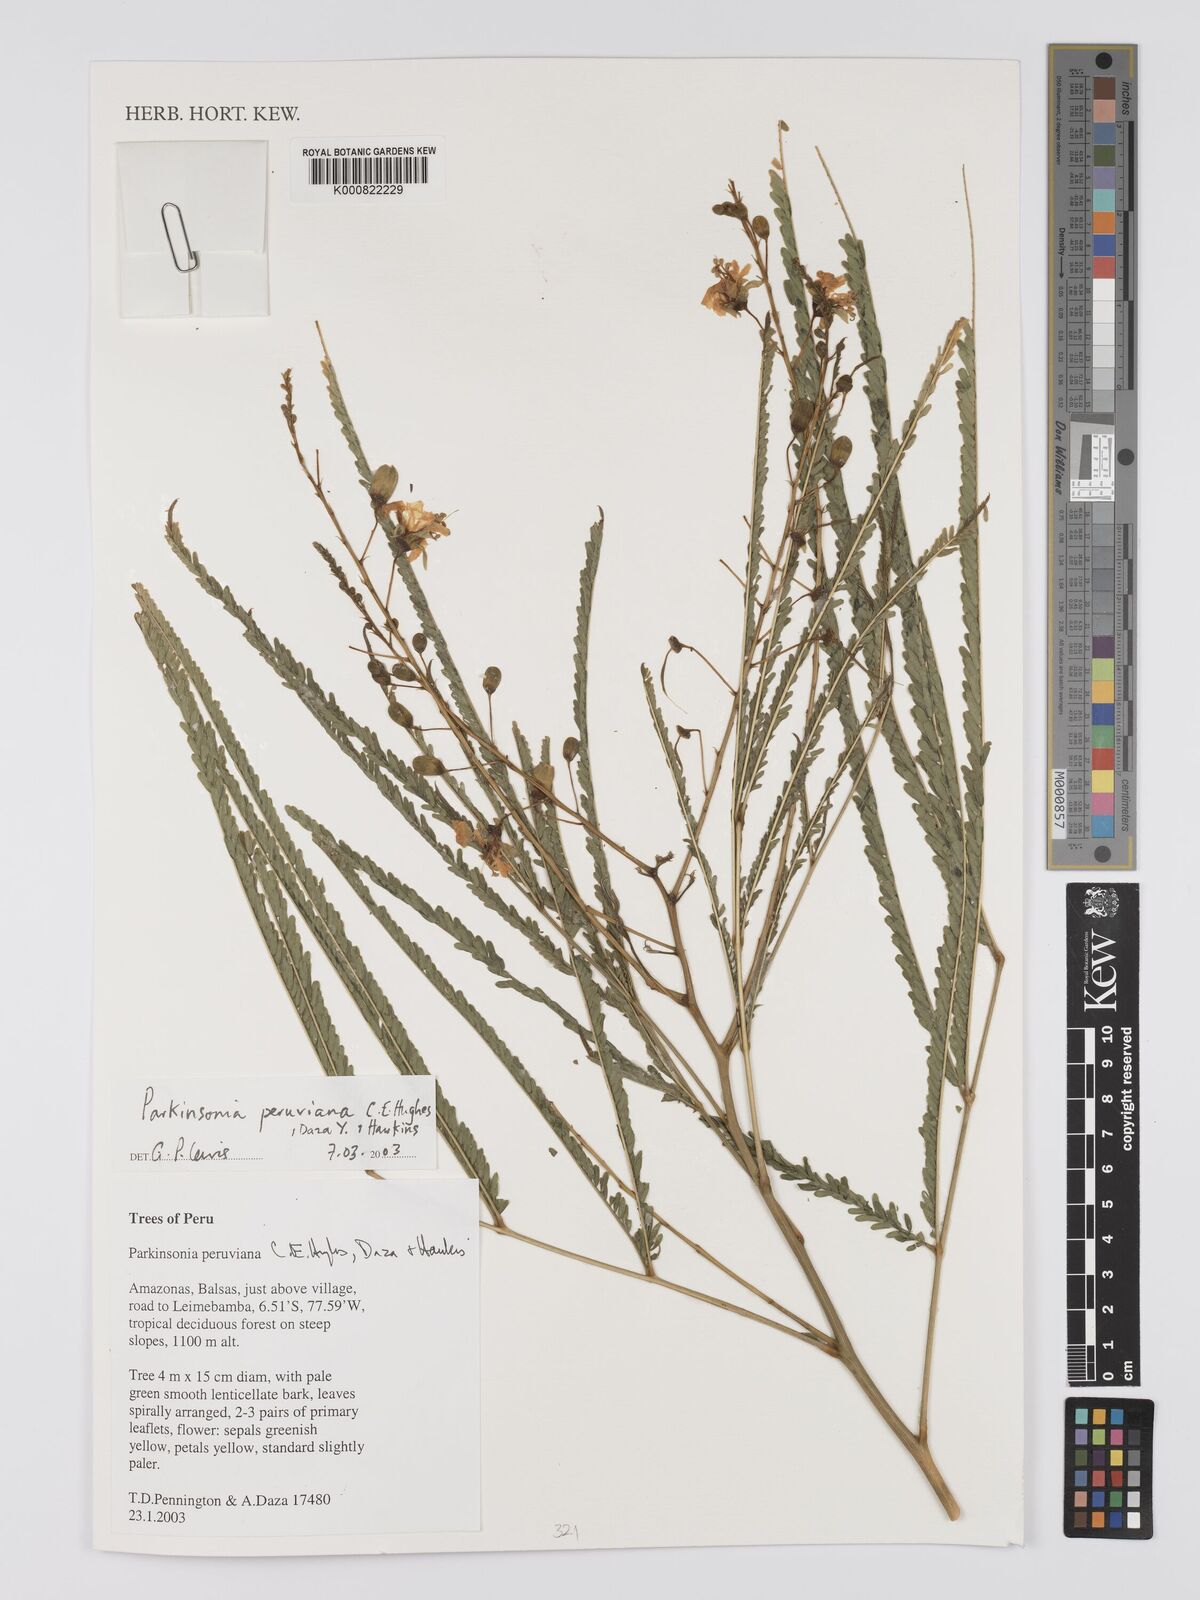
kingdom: Plantae
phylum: Tracheophyta
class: Magnoliopsida
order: Fabales
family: Fabaceae
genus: Parkinsonia
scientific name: Parkinsonia peruviana
